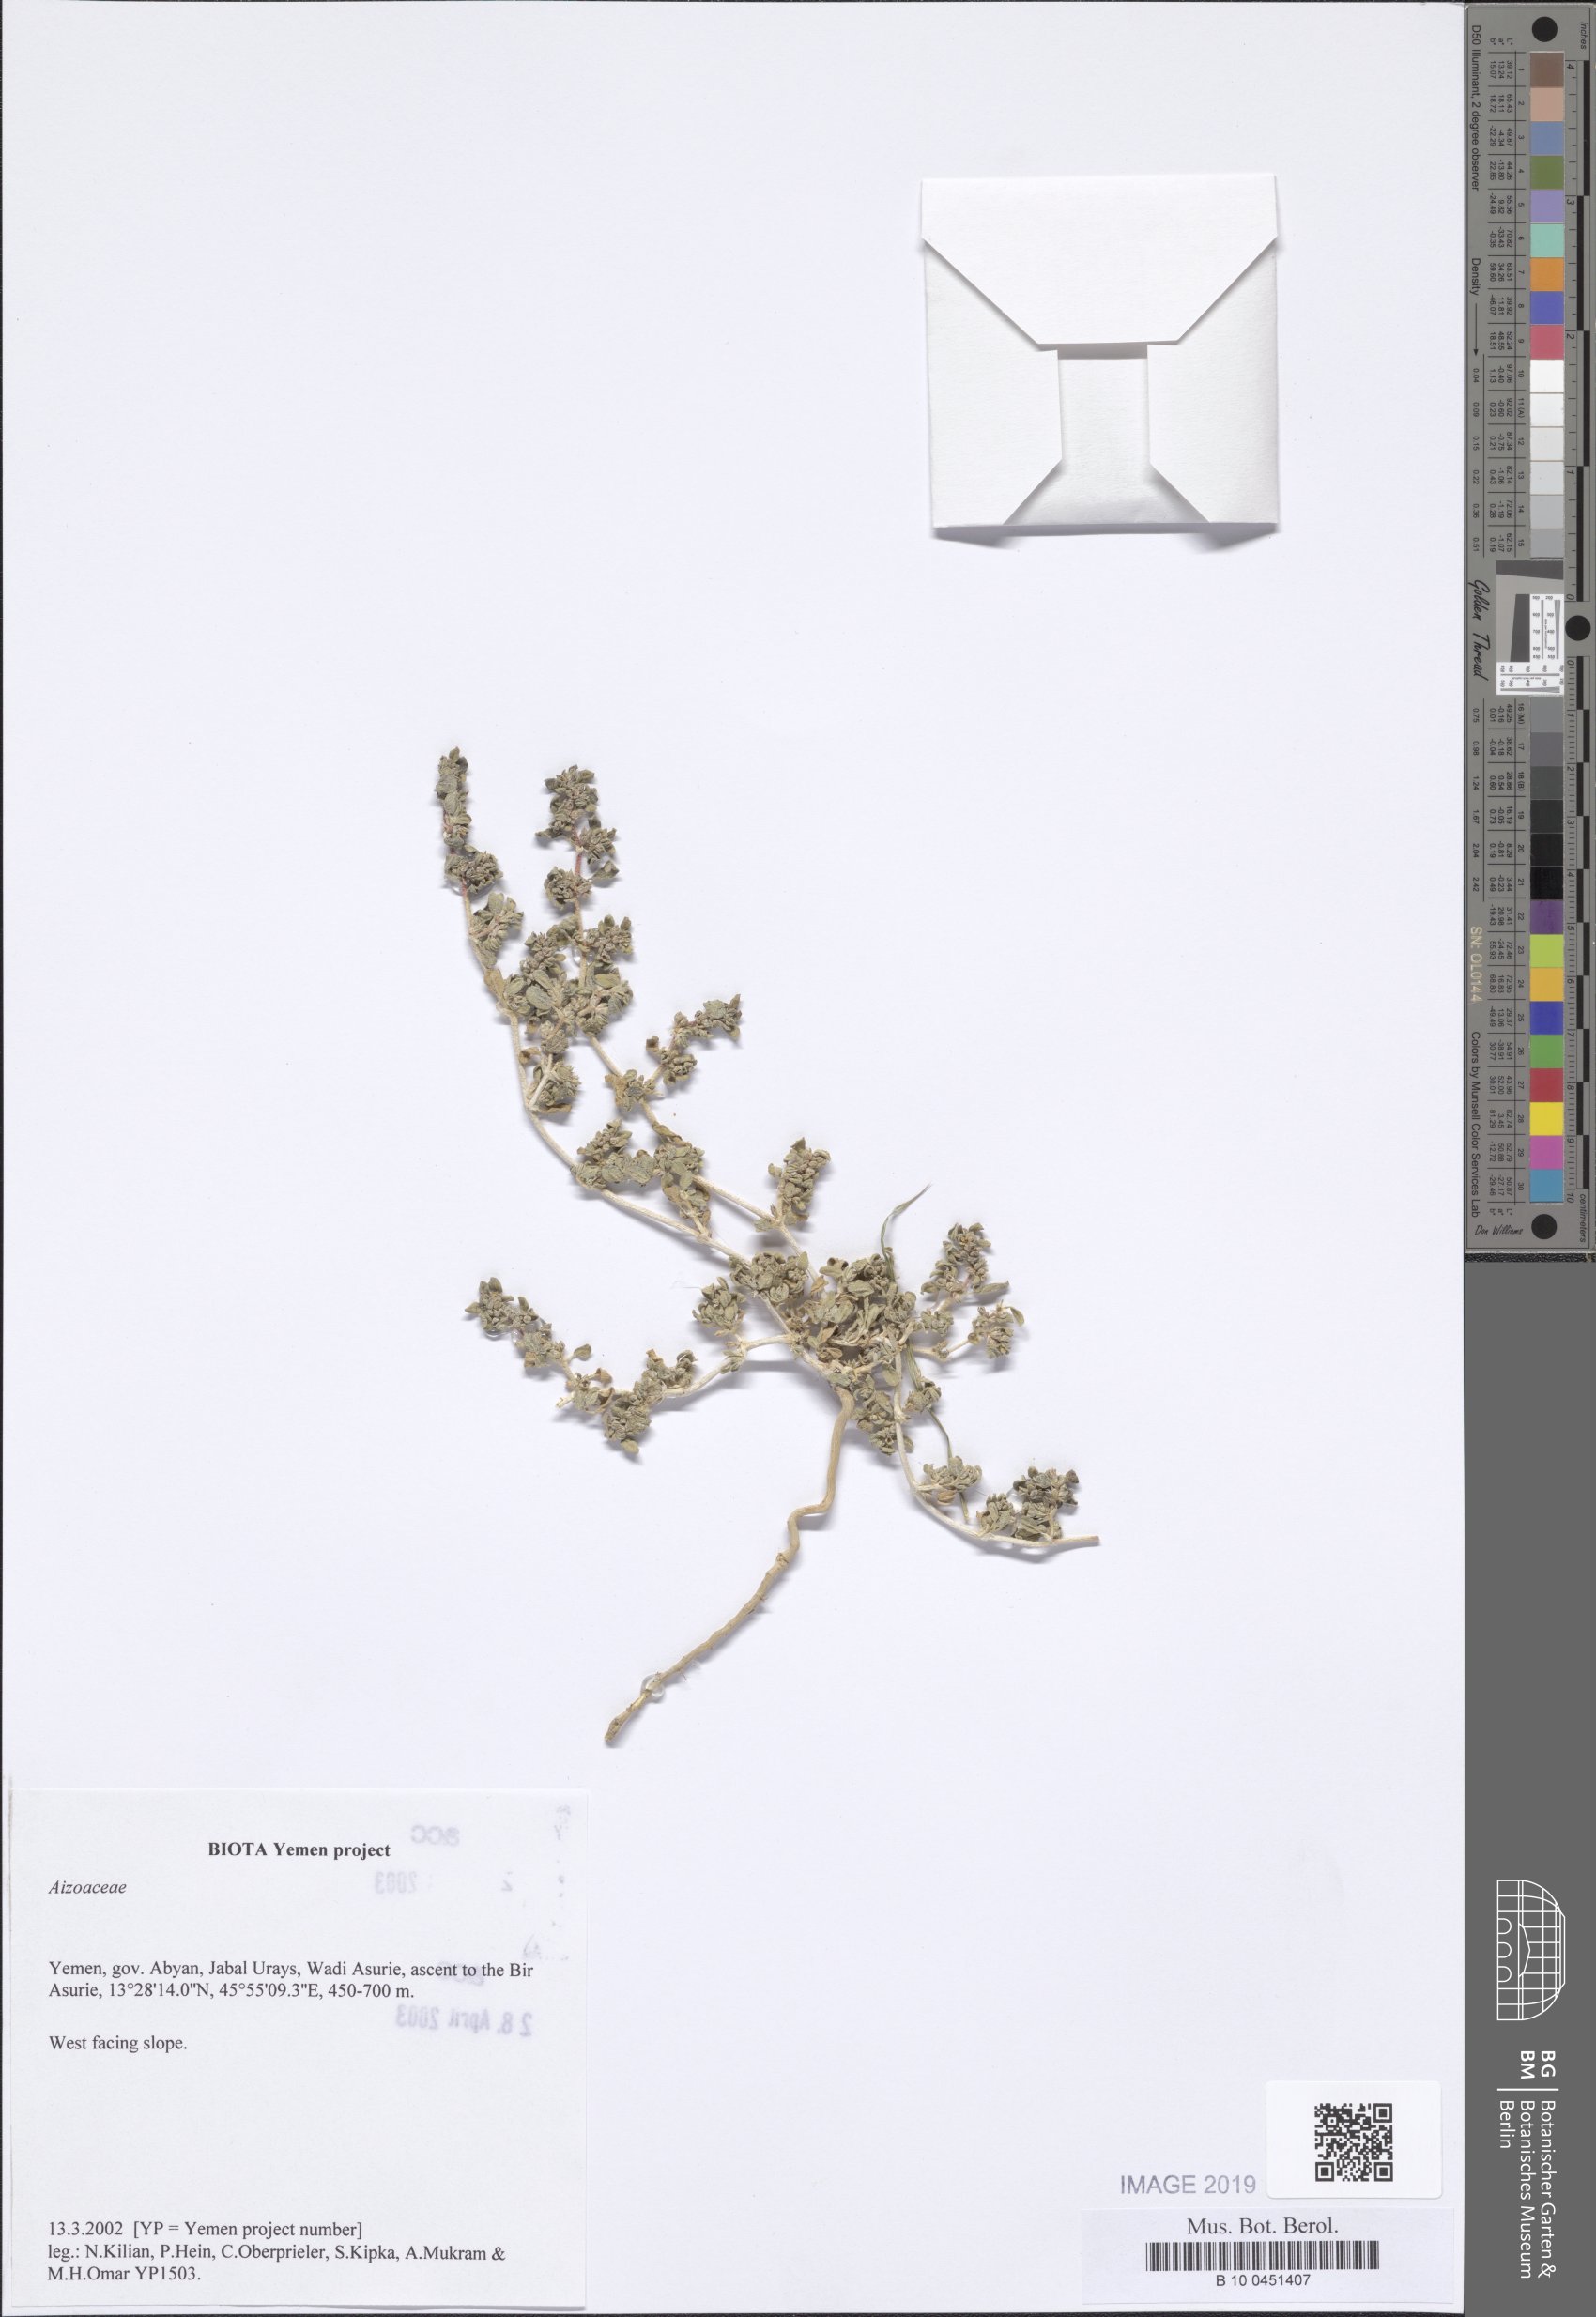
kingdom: Plantae
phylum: Tracheophyta
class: Magnoliopsida
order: Caryophyllales
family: Aizoaceae
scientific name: Aizoaceae
